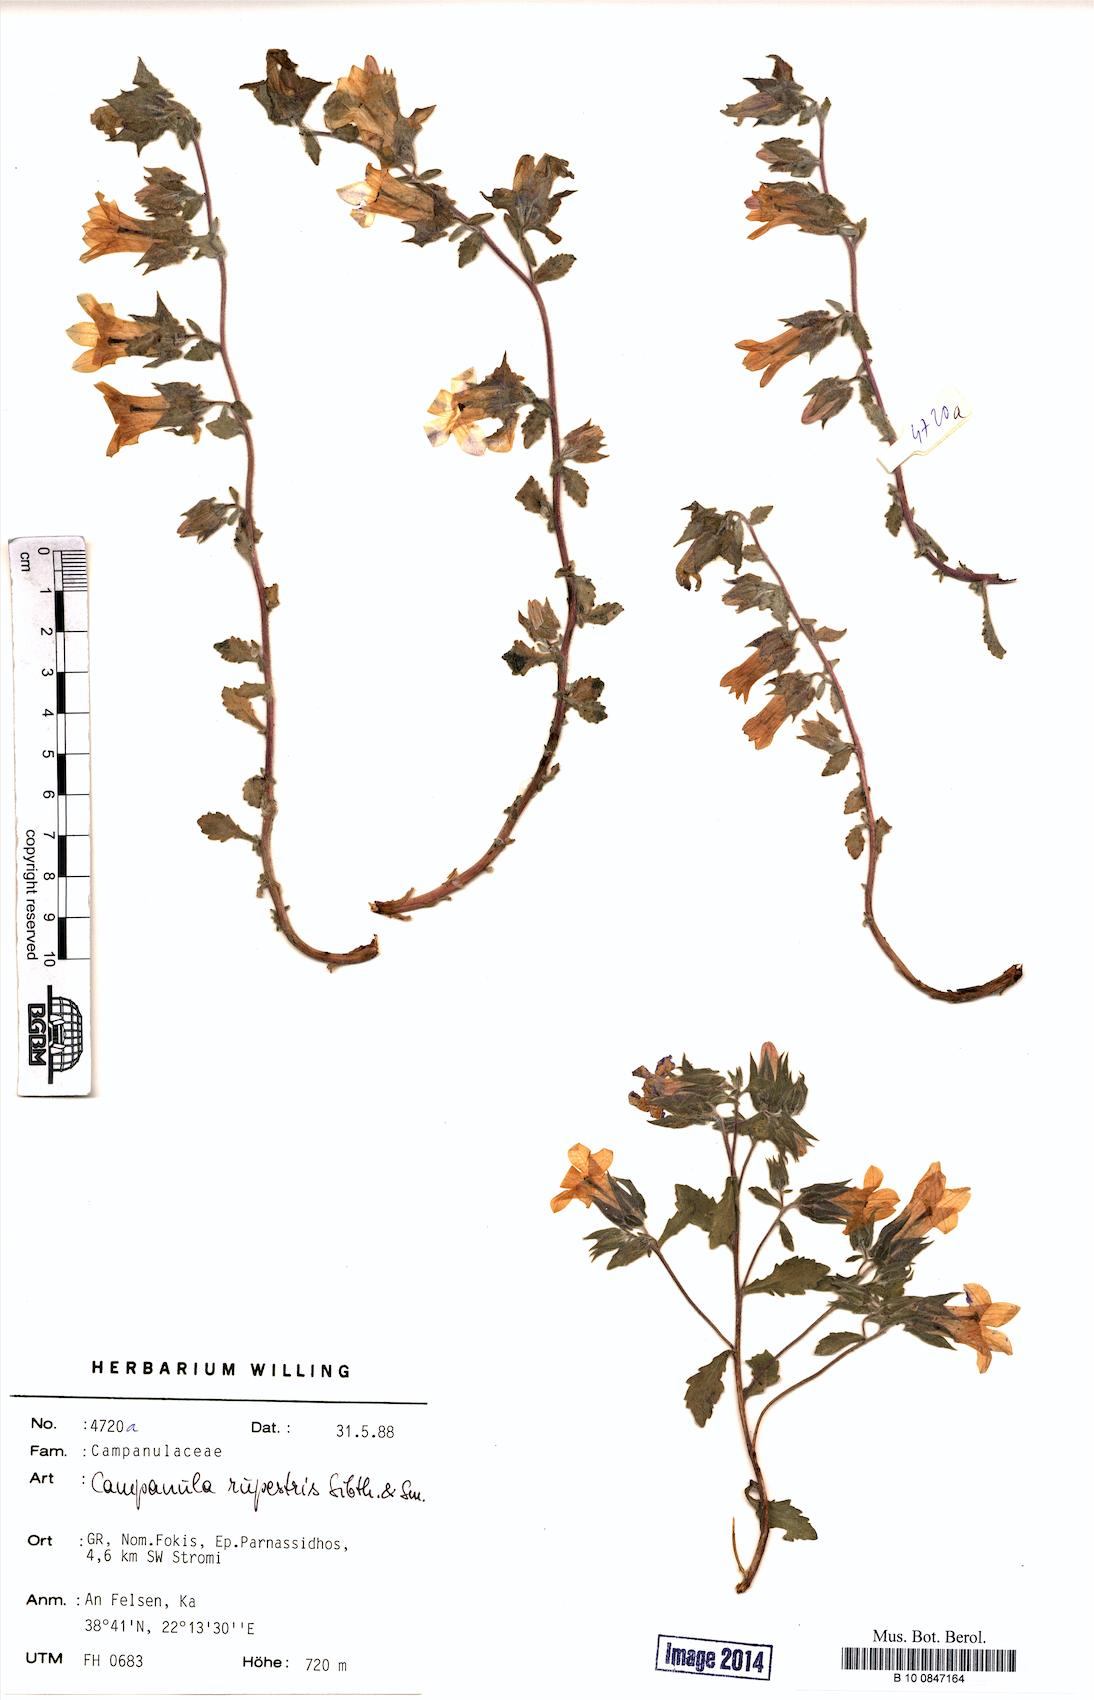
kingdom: Plantae
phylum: Tracheophyta
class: Magnoliopsida
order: Asterales
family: Campanulaceae
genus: Campanula
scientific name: Campanula rupestris
